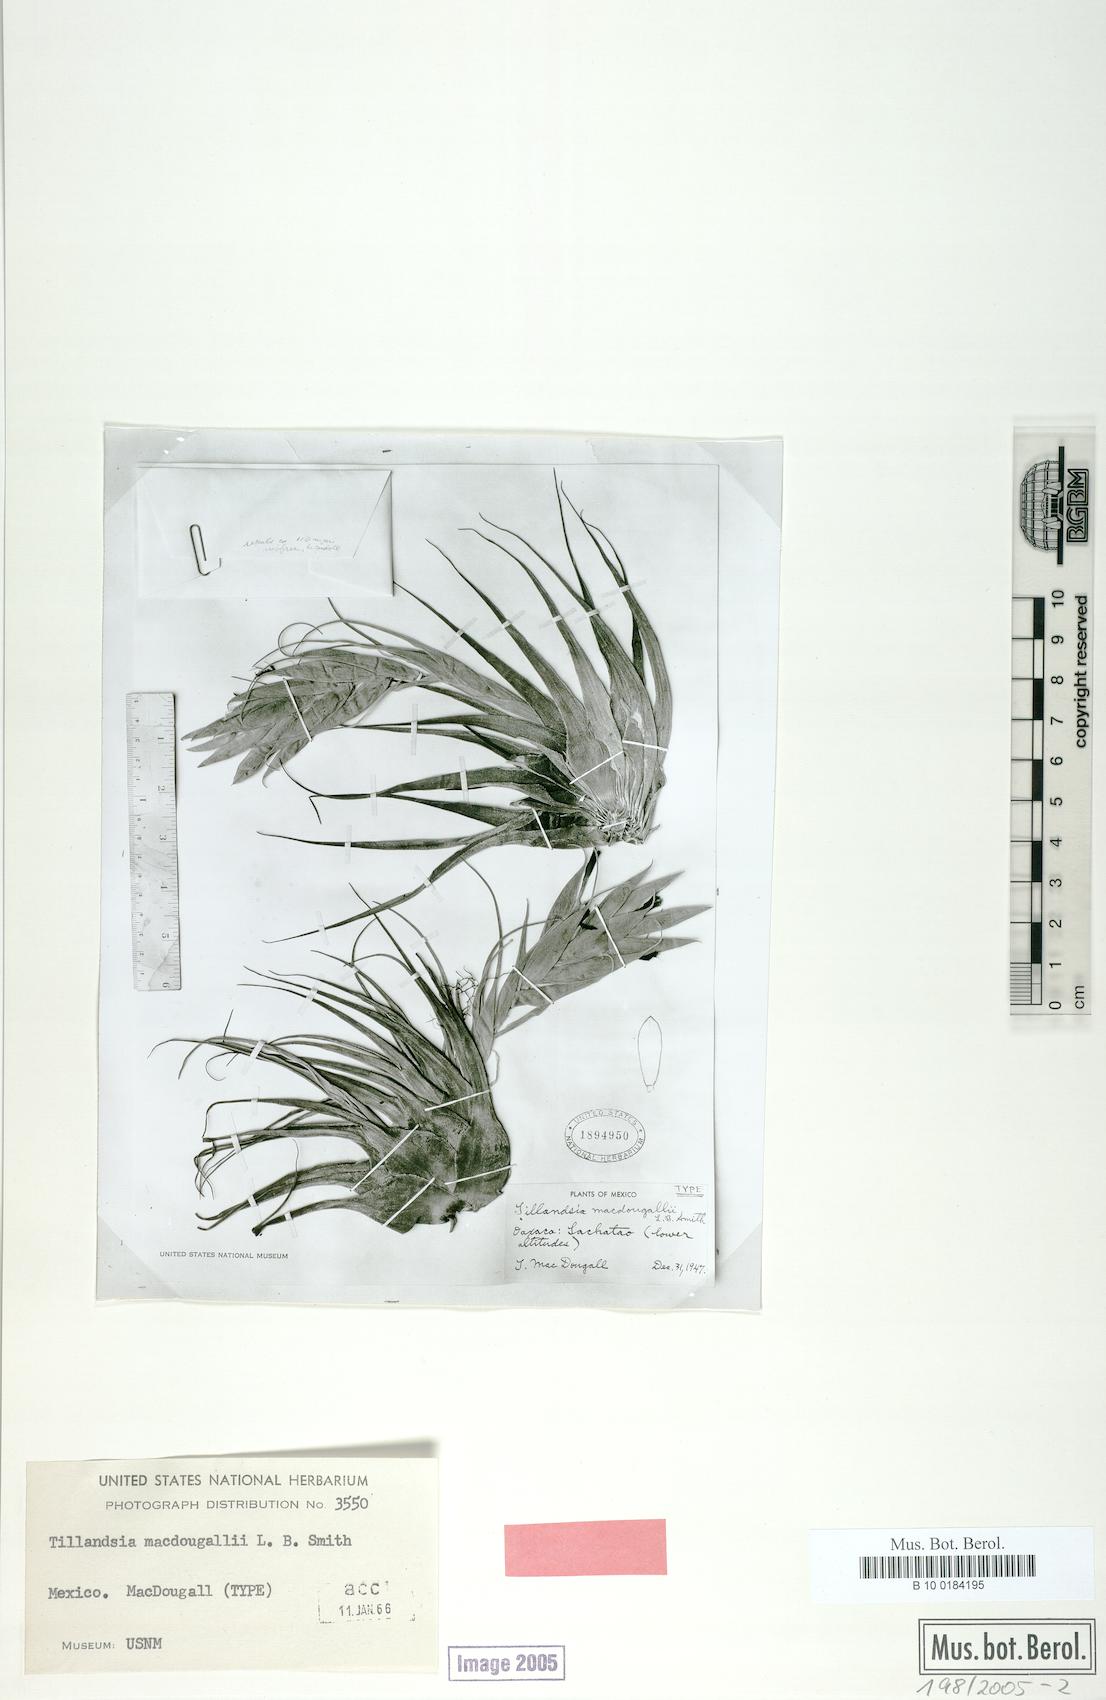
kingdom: Plantae
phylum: Tracheophyta
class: Liliopsida
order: Poales
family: Bromeliaceae
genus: Tillandsia
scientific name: Tillandsia macdougallii
